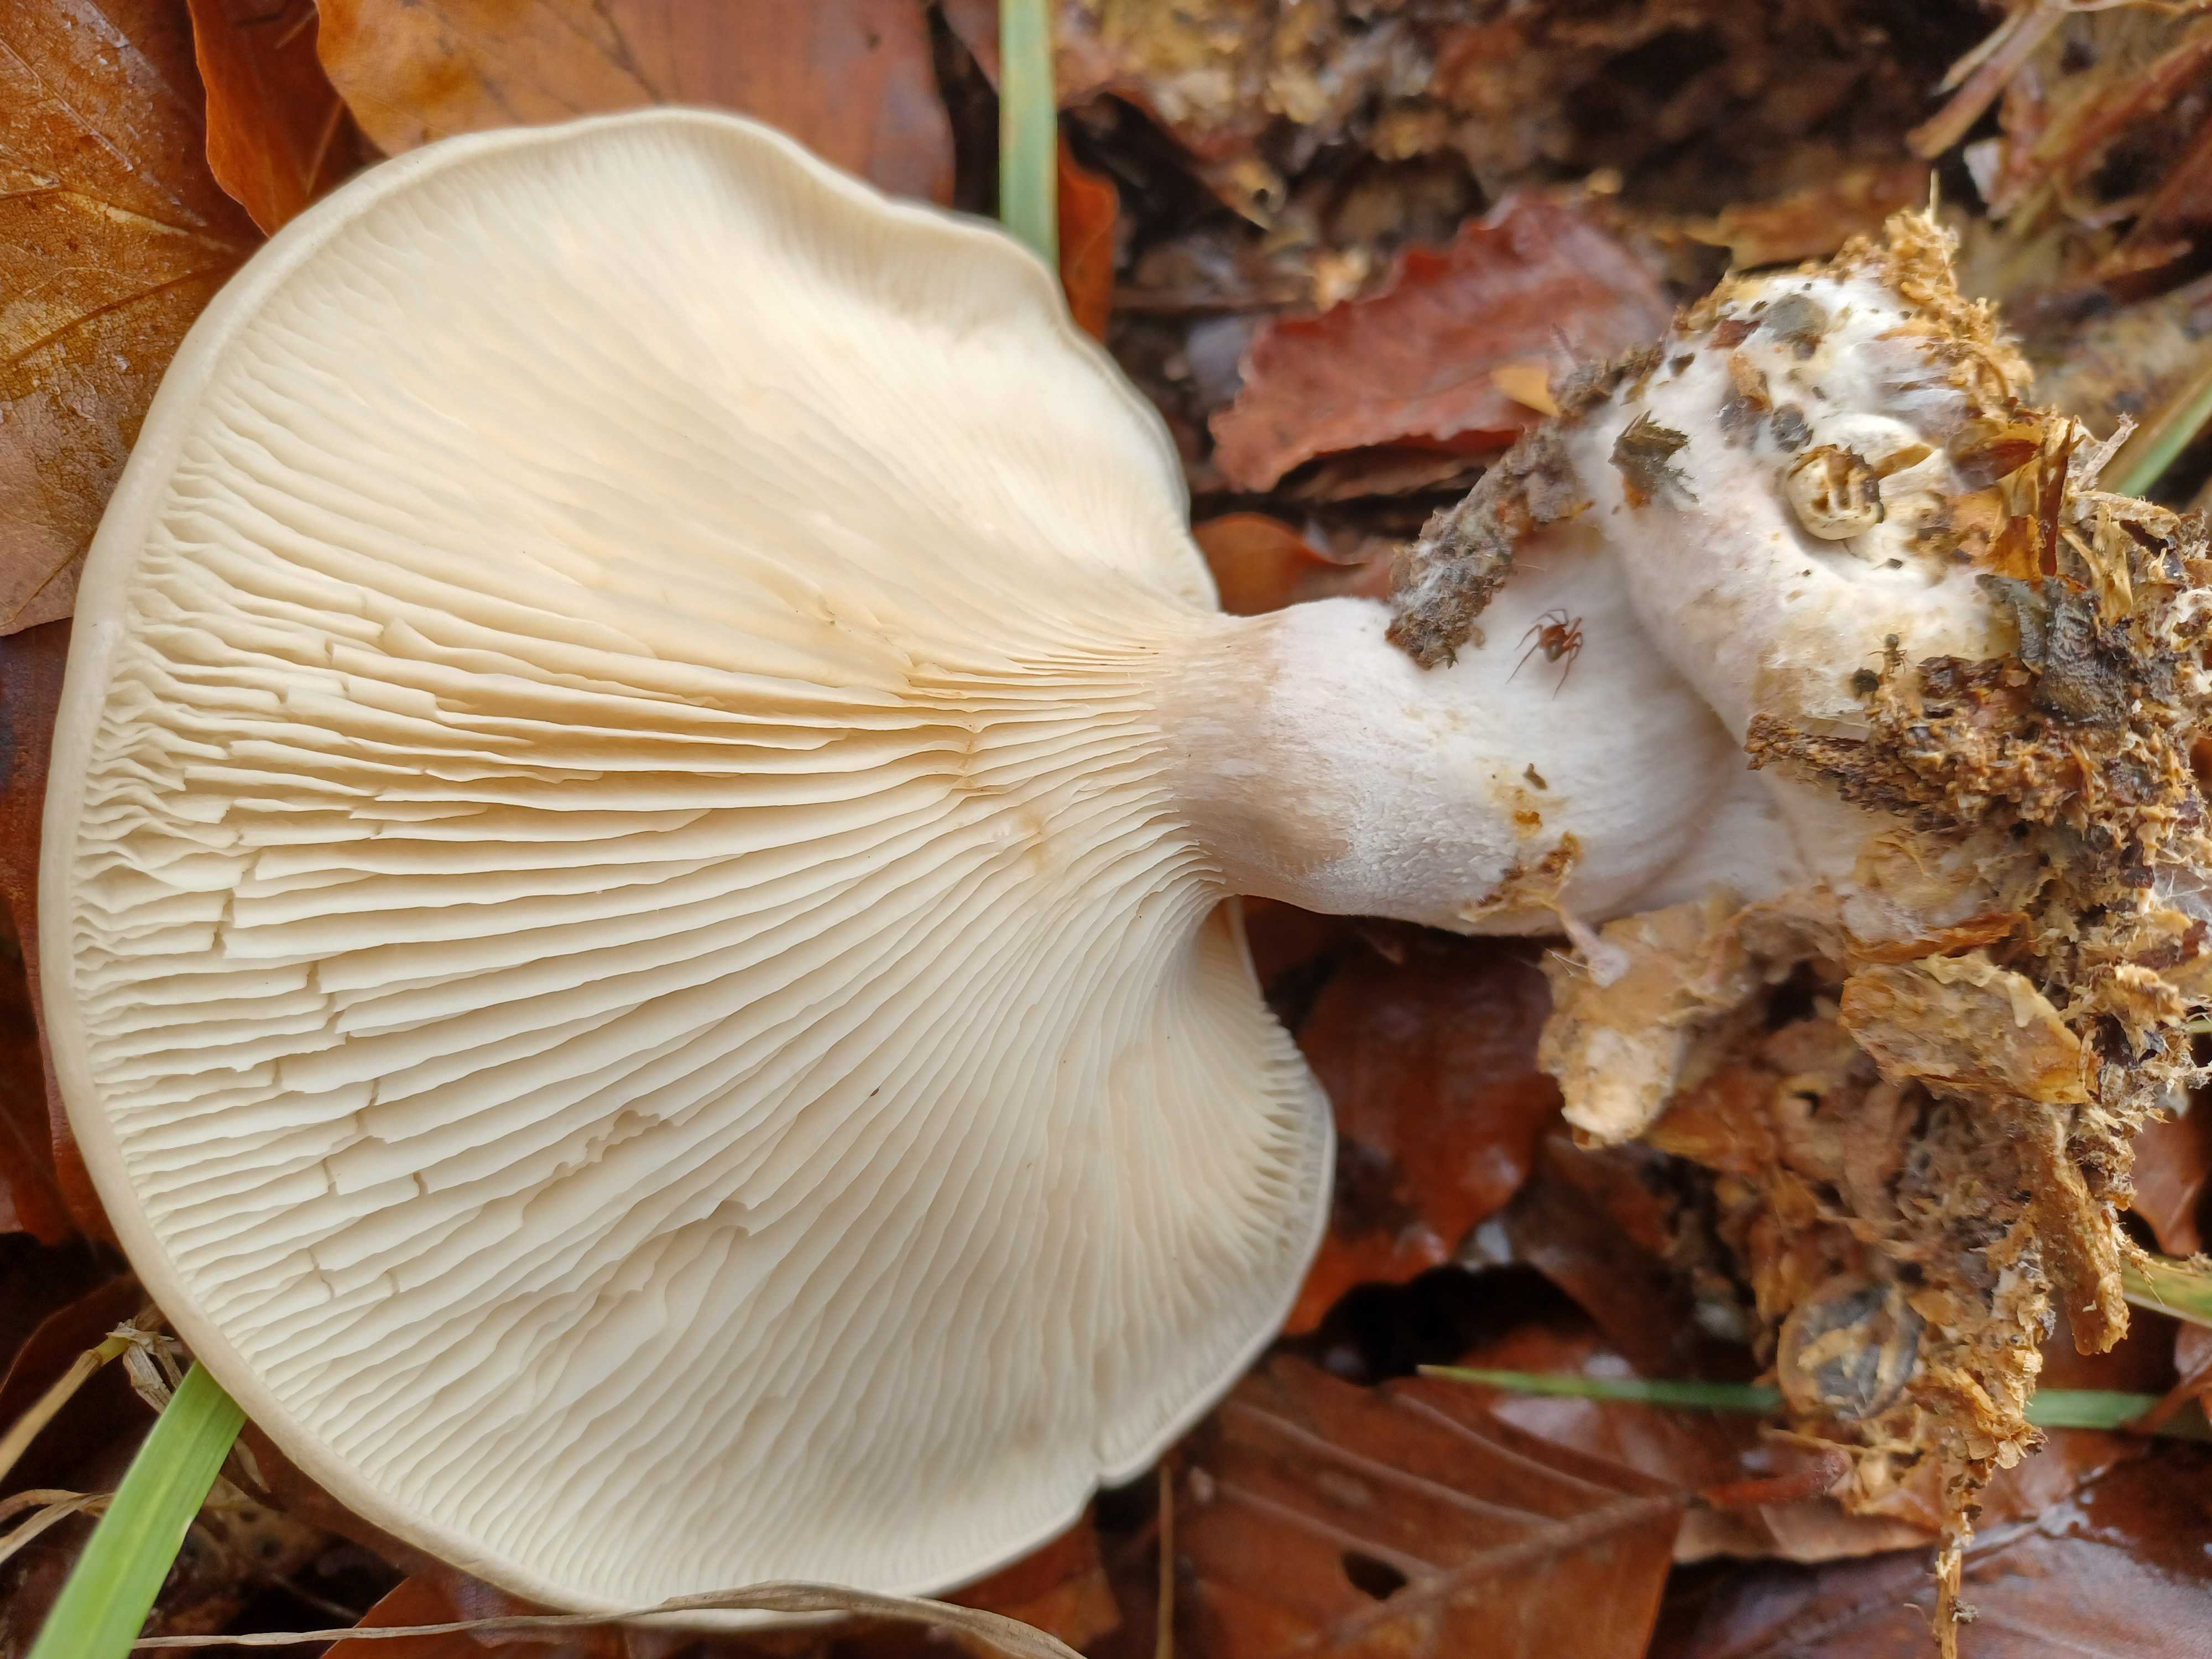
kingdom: Fungi
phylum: Basidiomycota
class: Agaricomycetes
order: Agaricales
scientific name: Agaricales
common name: champignonordenen
